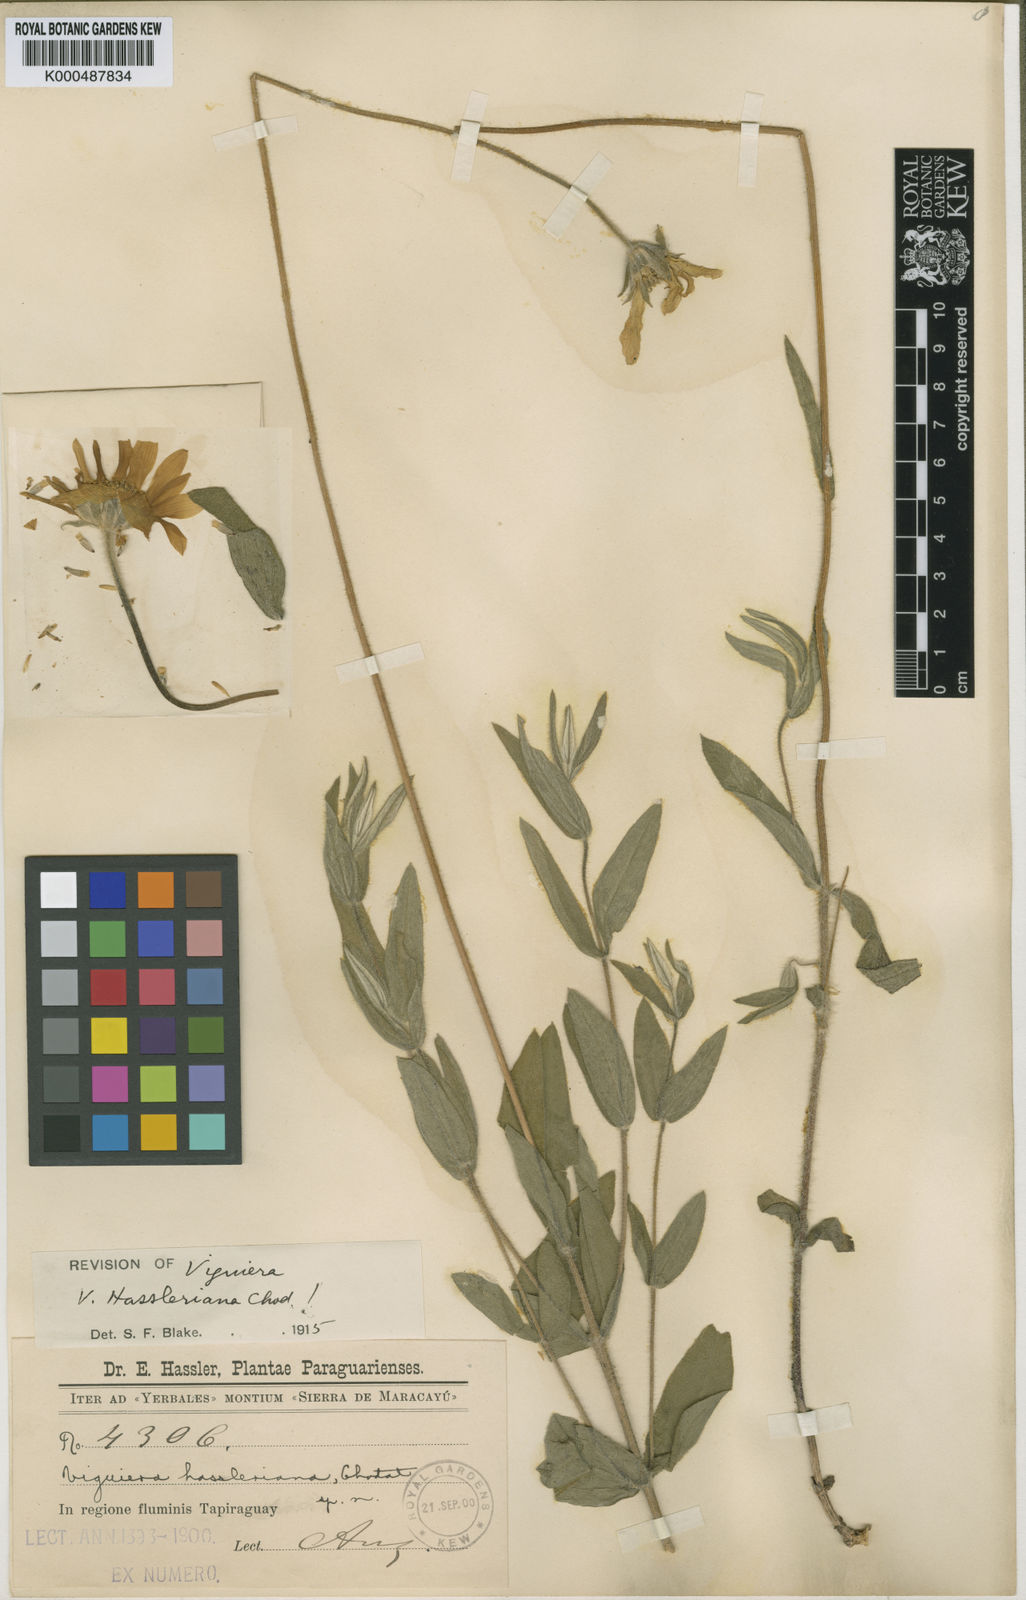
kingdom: Plantae
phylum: Tracheophyta
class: Magnoliopsida
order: Asterales
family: Asteraceae
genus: Viguiera
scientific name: Viguiera hassleriana
